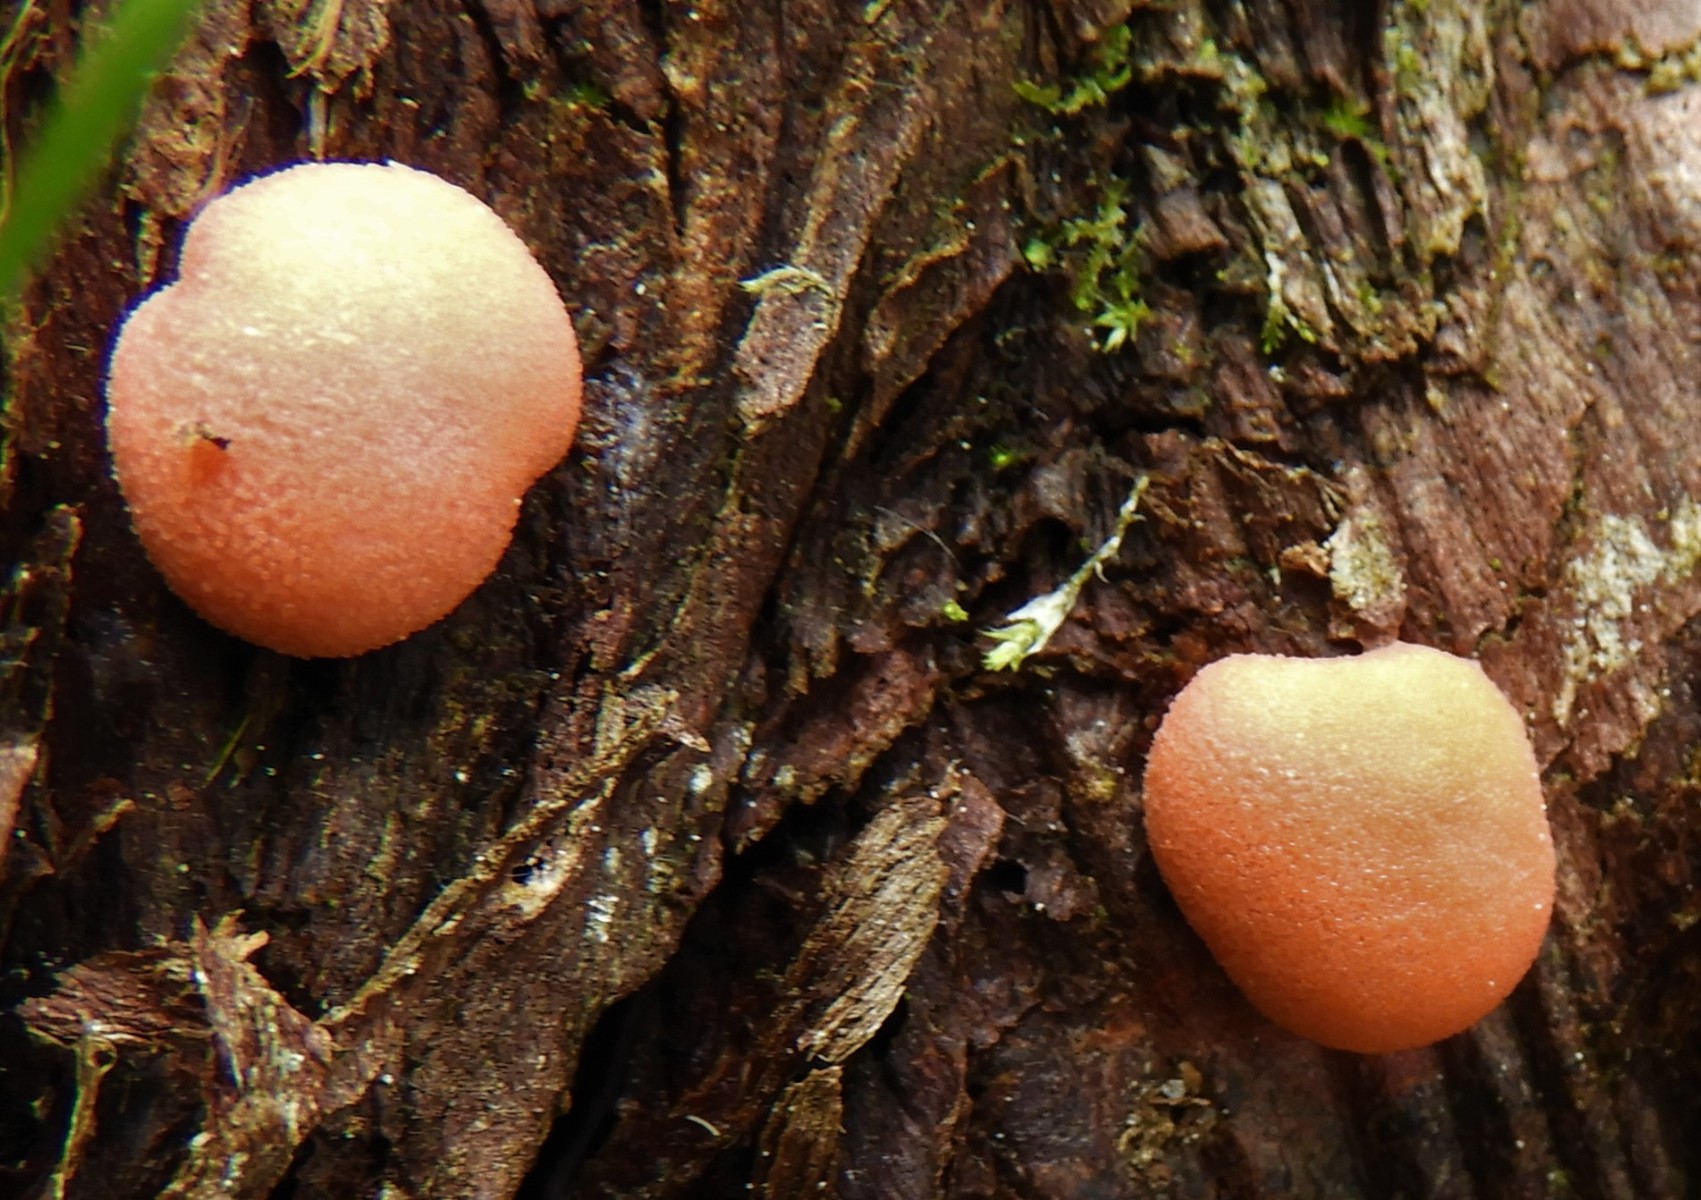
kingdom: Protozoa
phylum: Mycetozoa
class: Myxomycetes
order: Cribrariales
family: Tubiferaceae
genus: Lycogala
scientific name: Lycogala epidendrum
